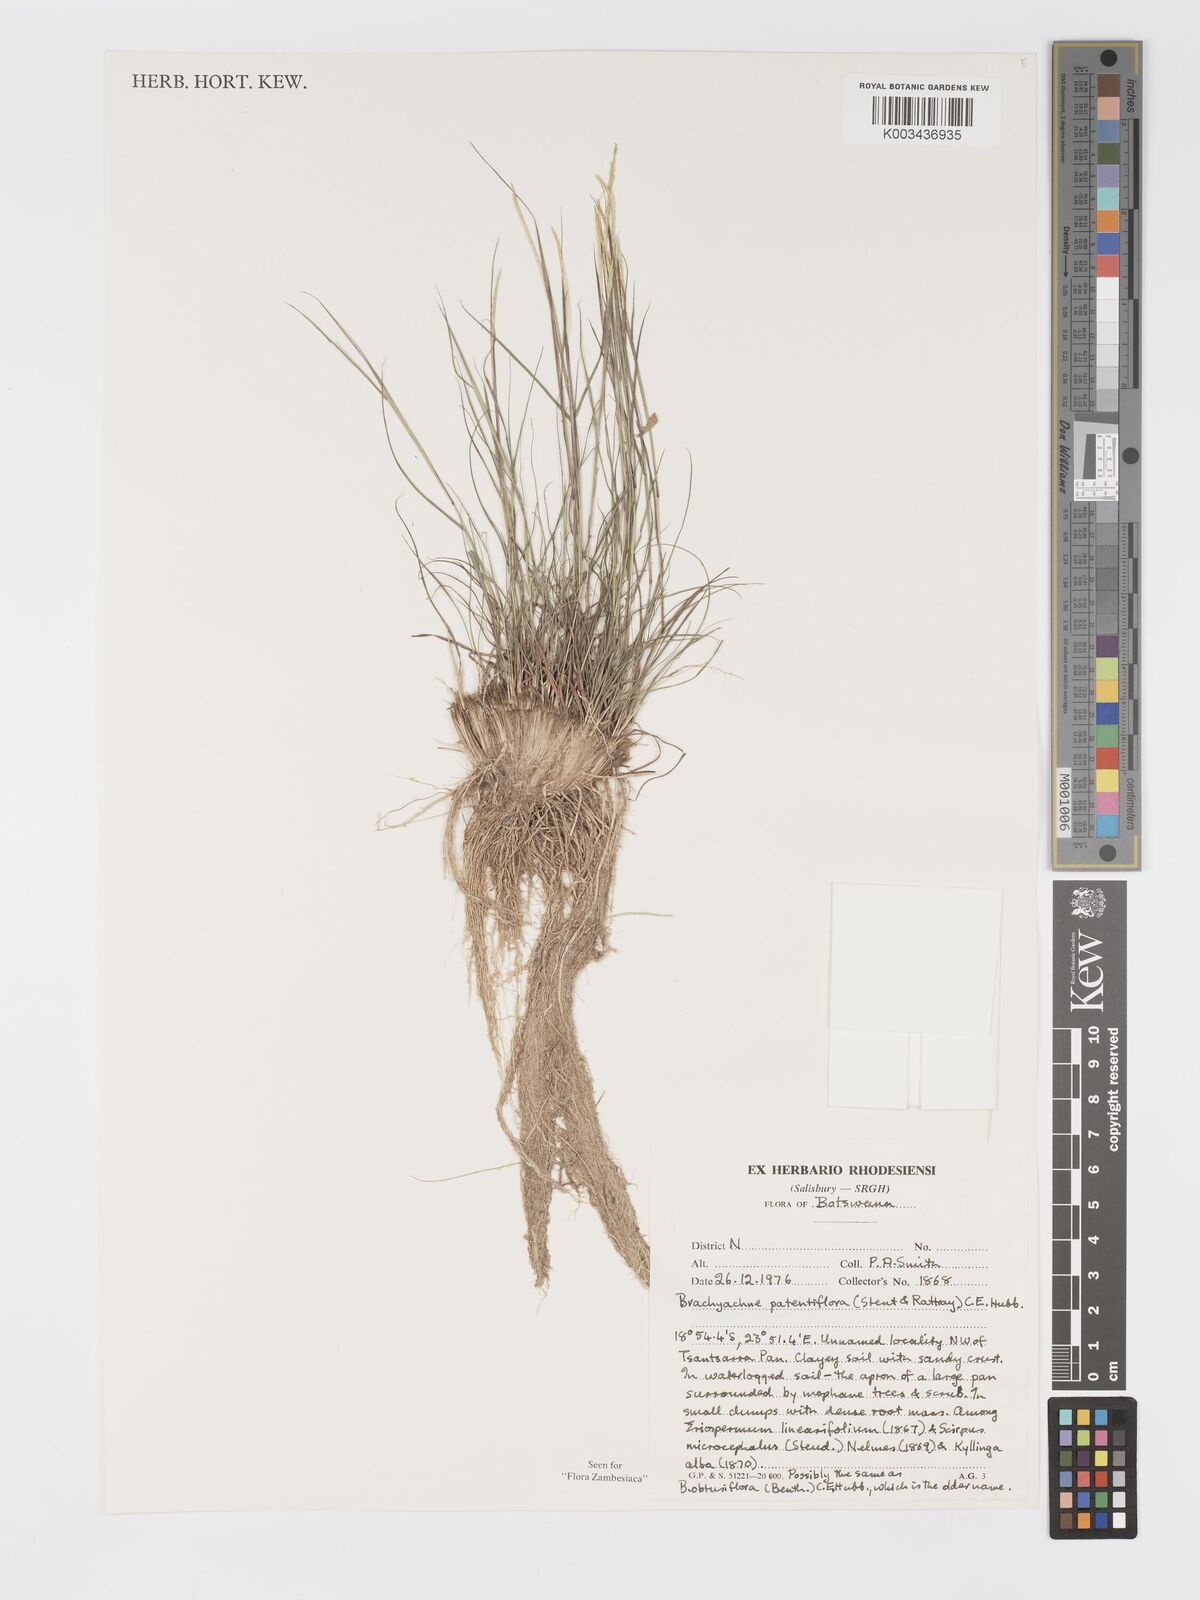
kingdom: Plantae
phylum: Tracheophyta
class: Liliopsida
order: Poales
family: Poaceae
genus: Micrachne
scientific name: Micrachne patentiflora
